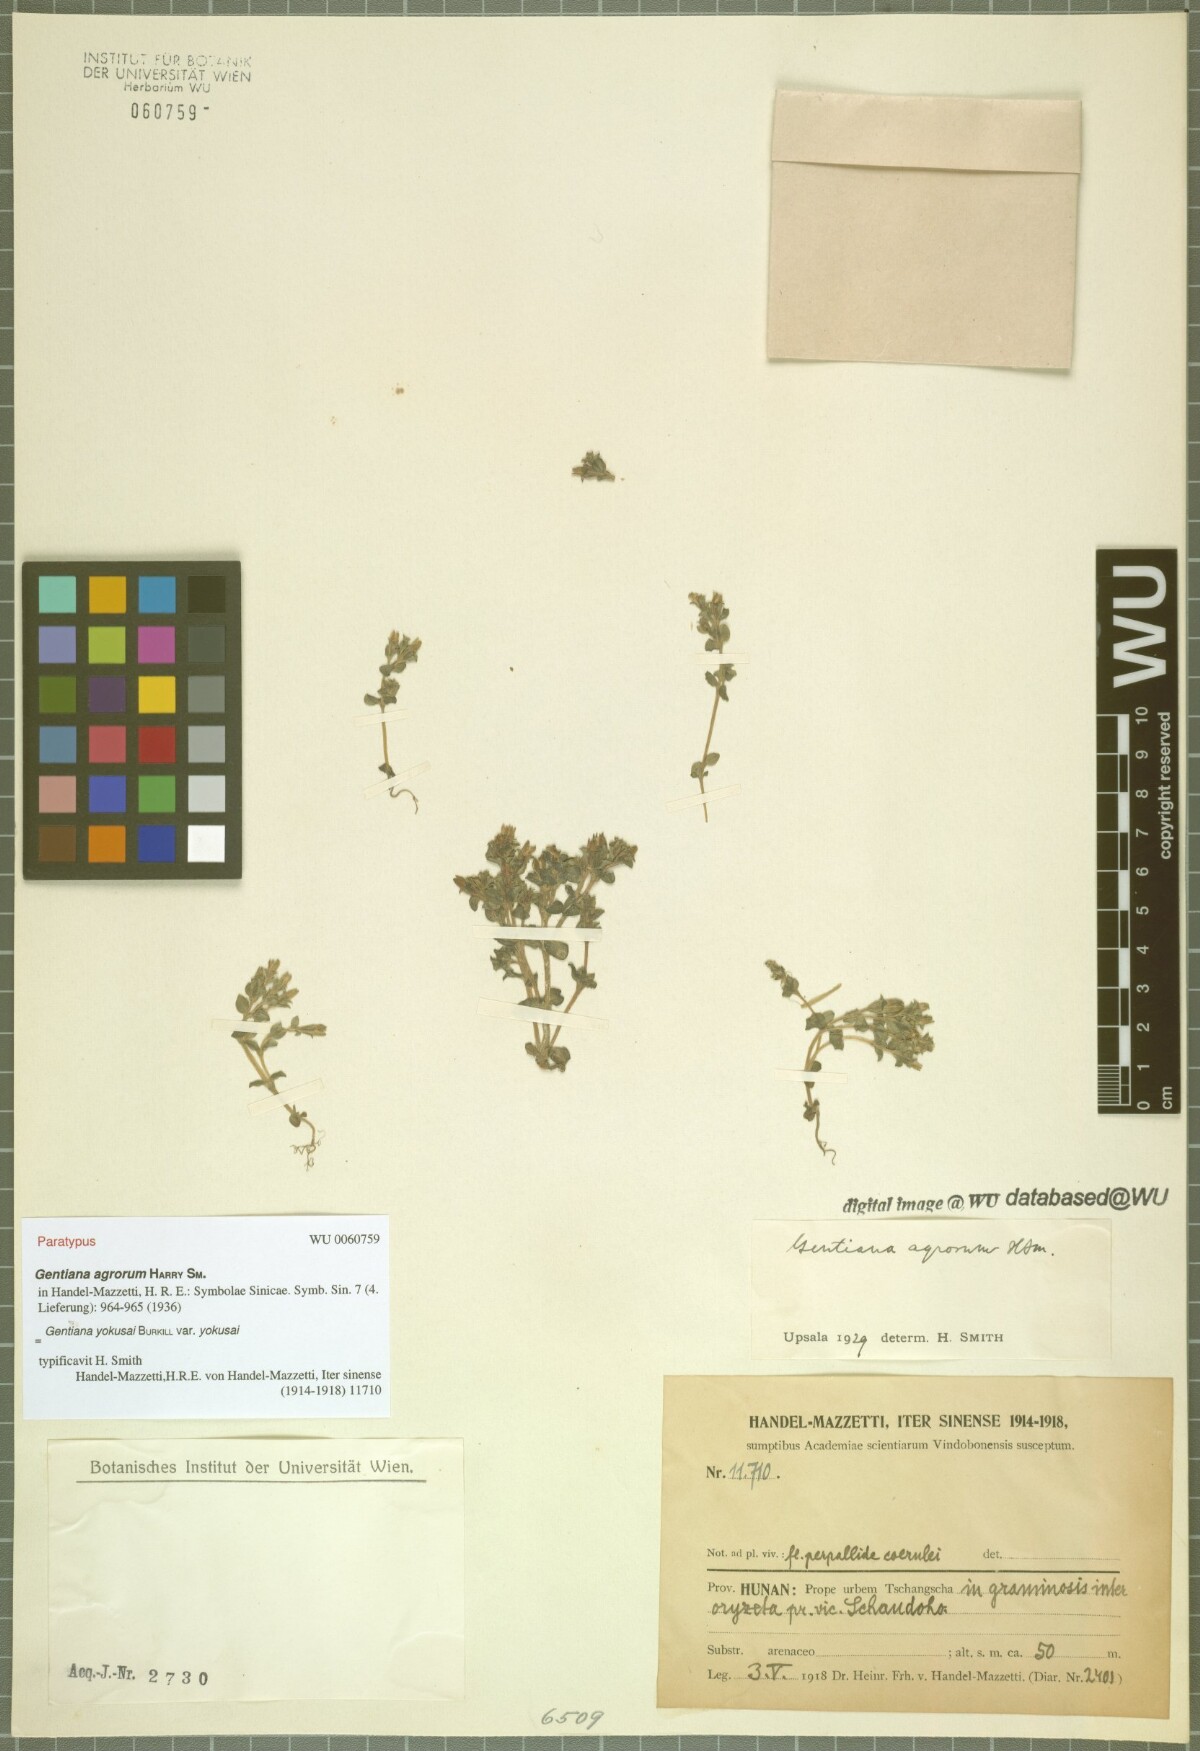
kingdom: Plantae
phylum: Tracheophyta
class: Magnoliopsida
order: Gentianales
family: Gentianaceae
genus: Gentiana
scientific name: Gentiana yokusai
